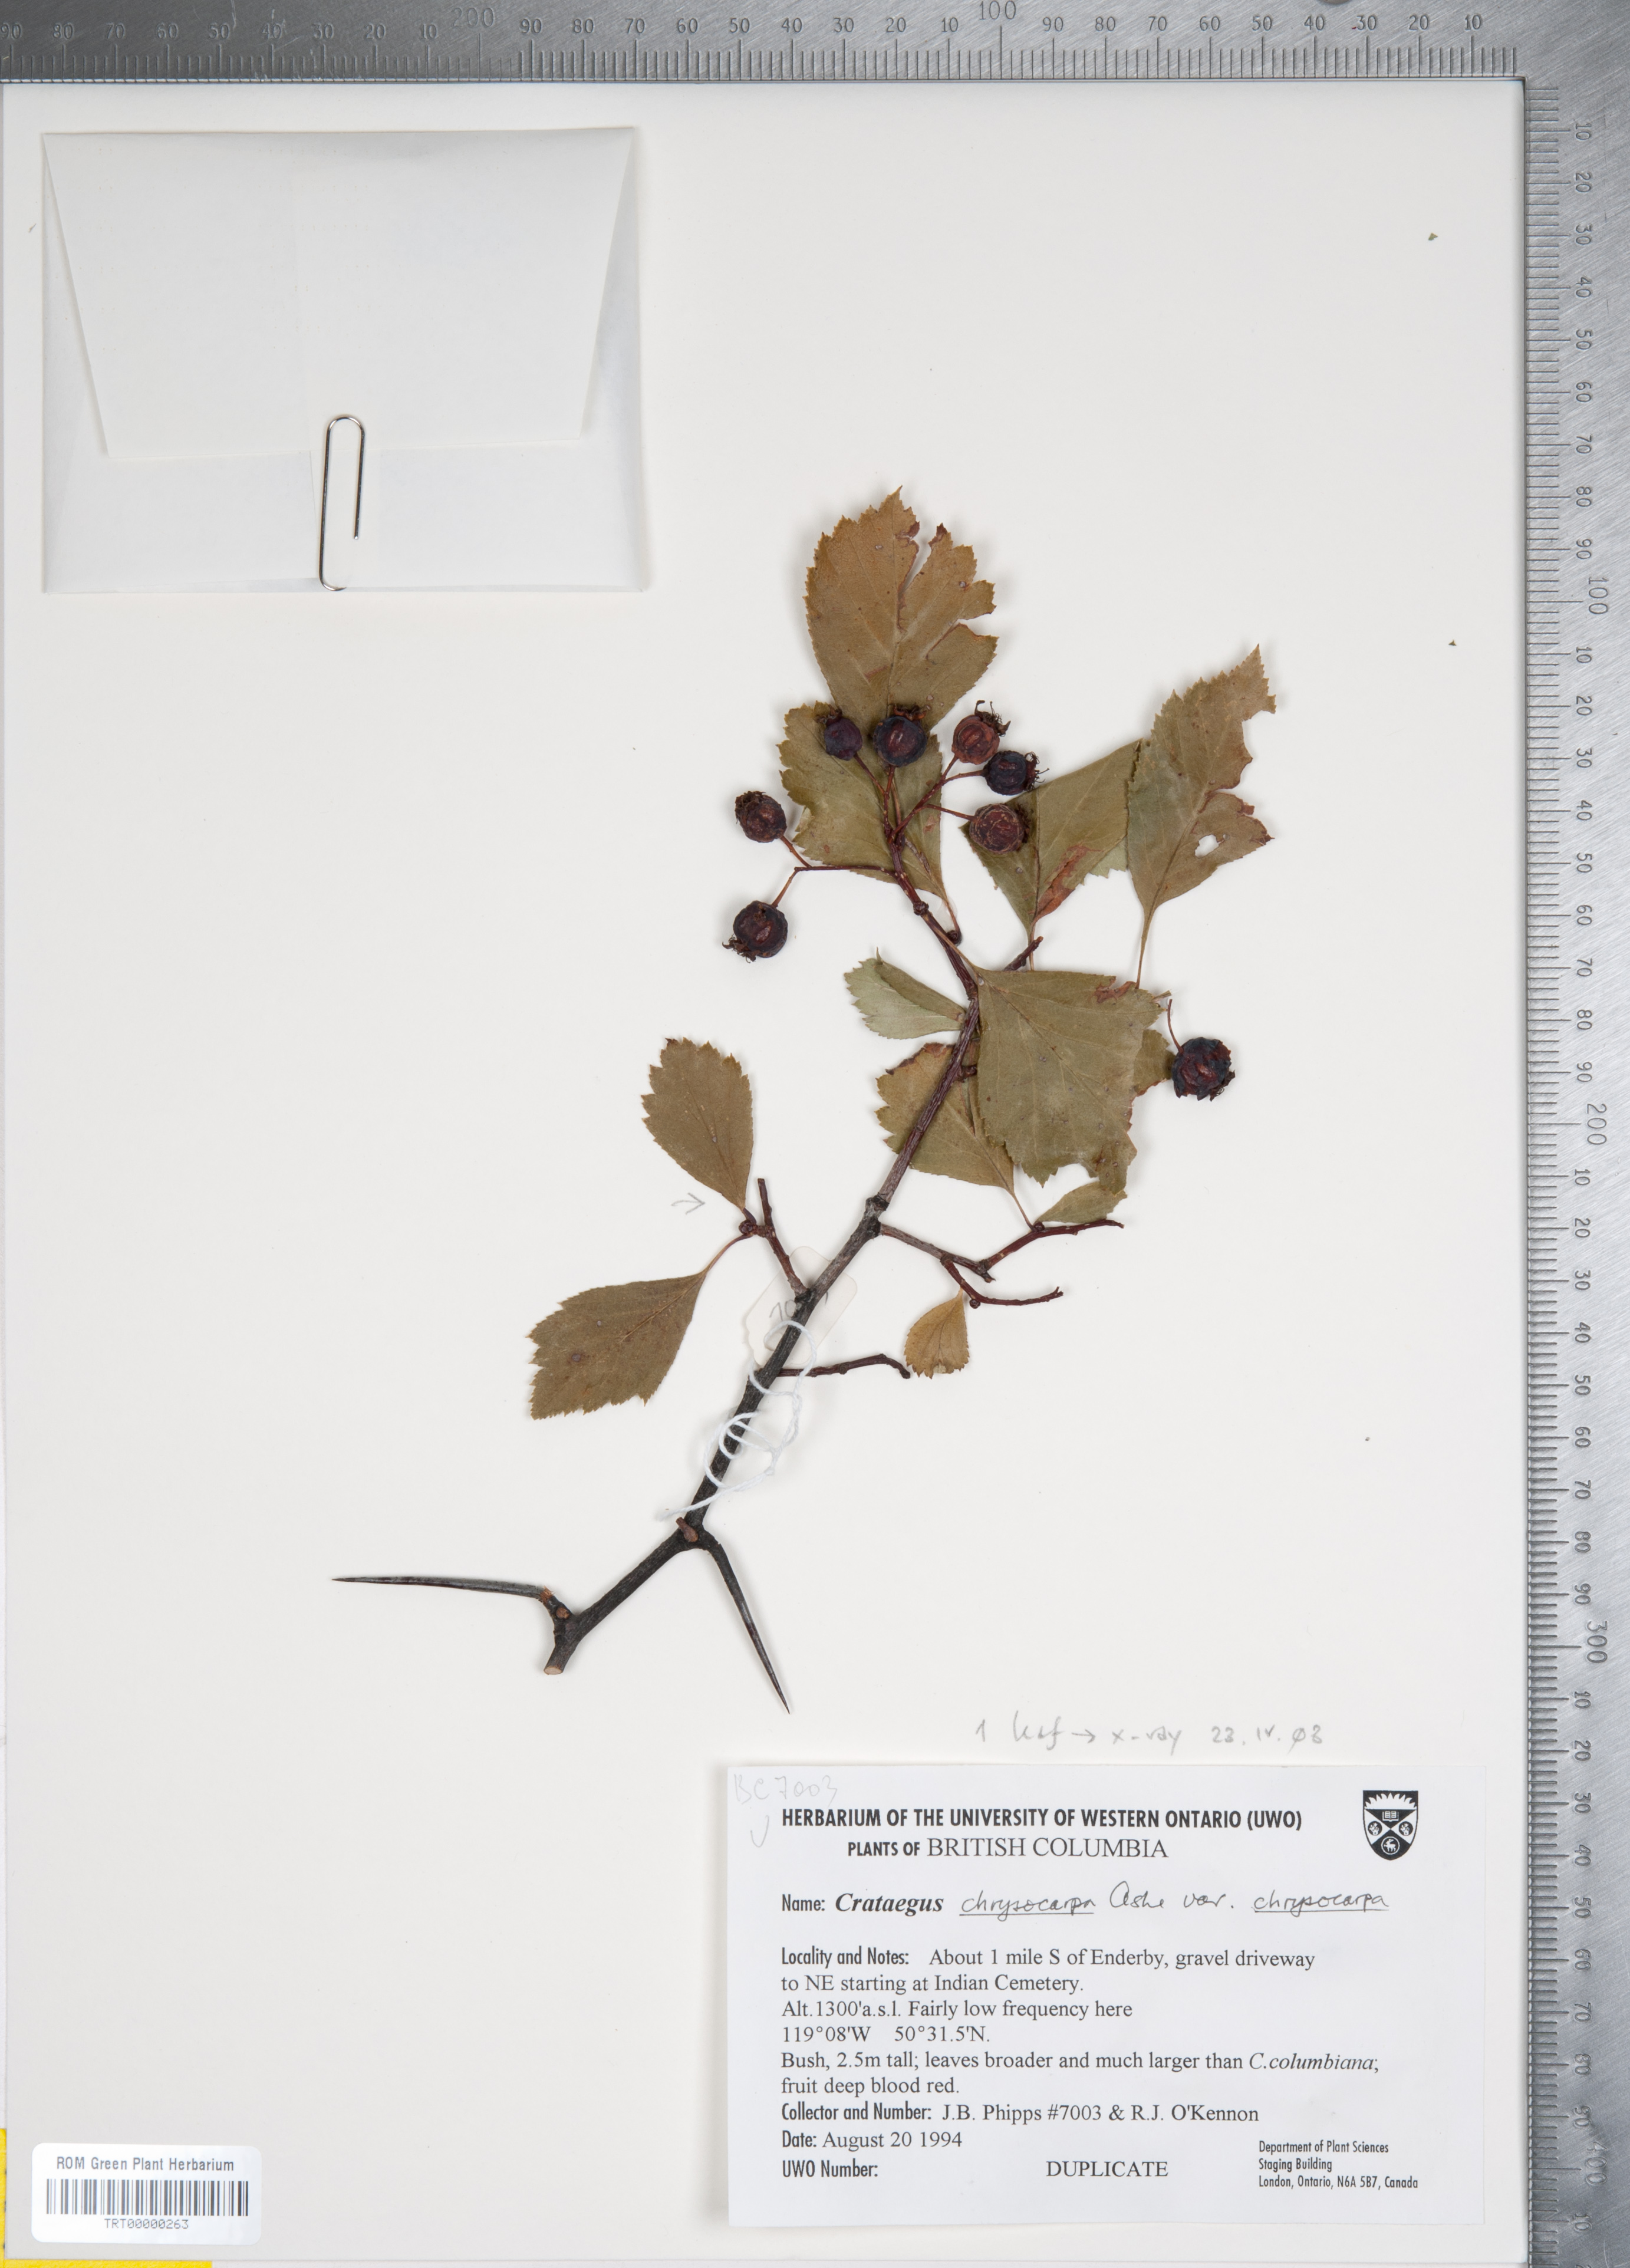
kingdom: Plantae
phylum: Tracheophyta
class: Magnoliopsida
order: Rosales
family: Rosaceae
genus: Crataegus
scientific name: Crataegus chrysocarpa
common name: Fire-berry hawthorn
